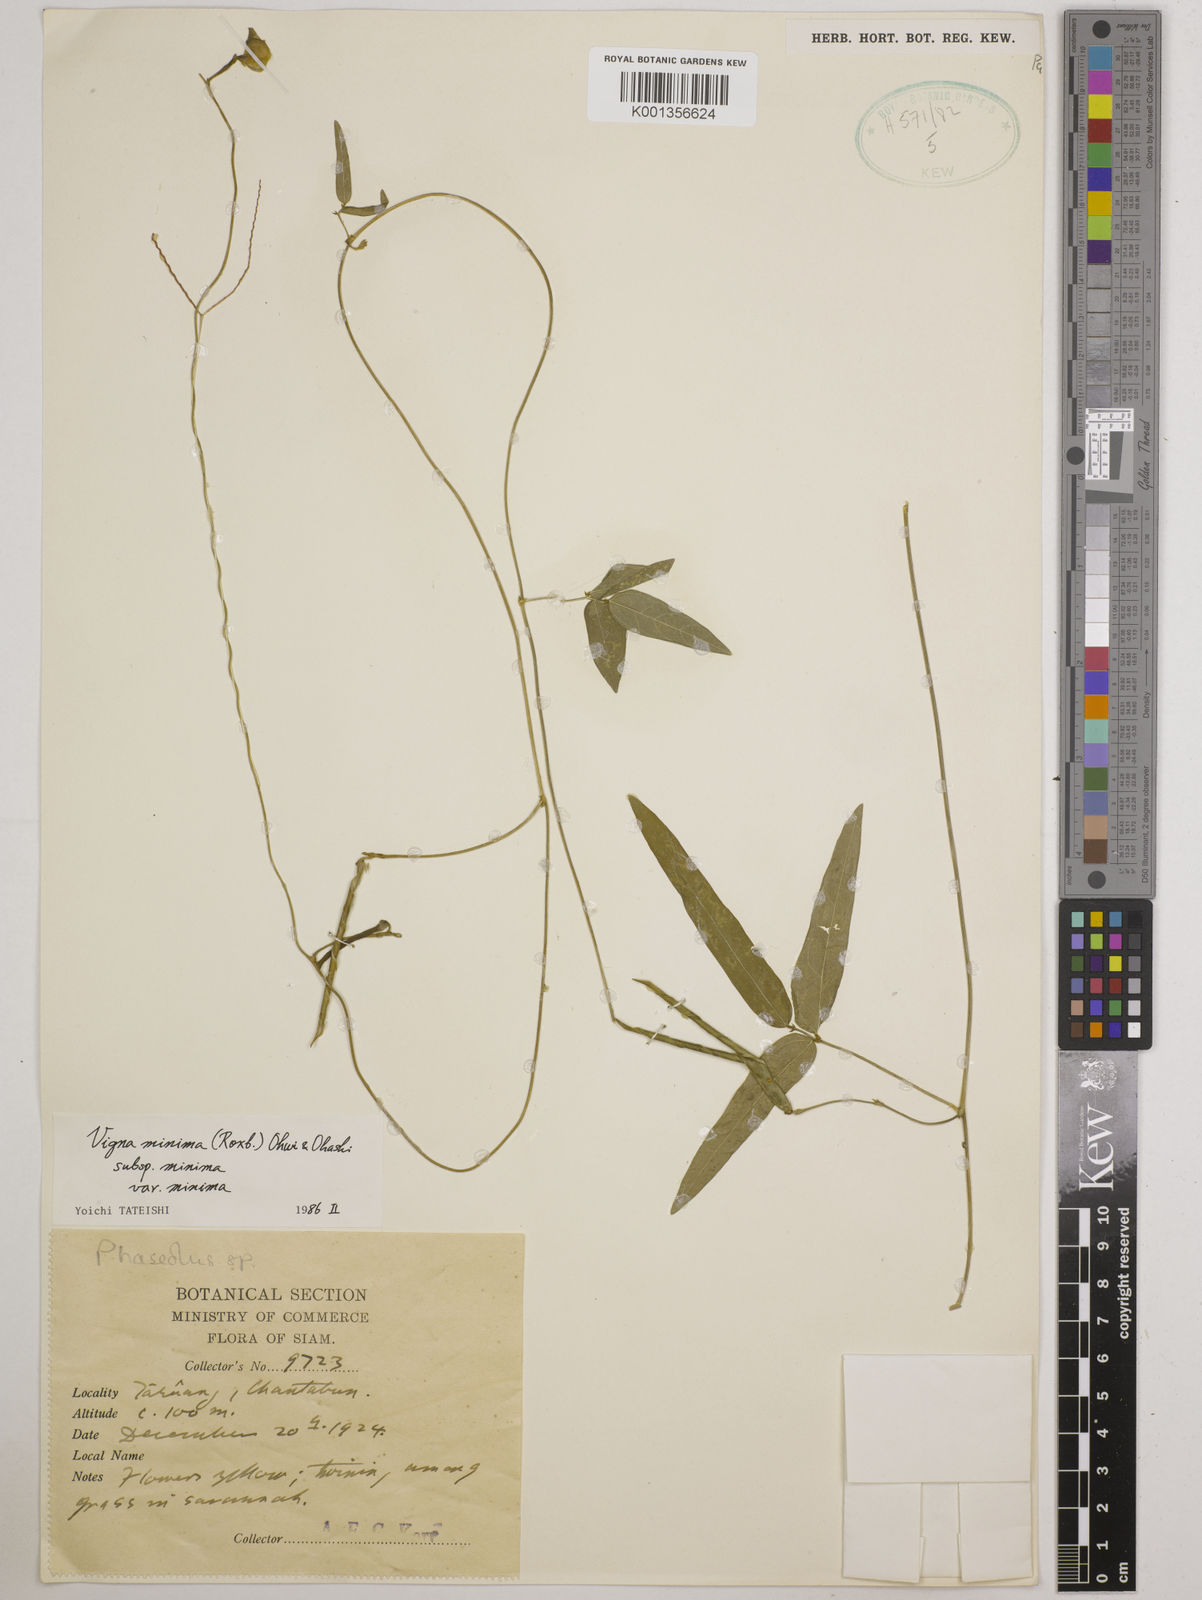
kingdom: Plantae
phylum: Tracheophyta
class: Magnoliopsida
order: Fabales
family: Fabaceae
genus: Vigna
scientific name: Vigna
